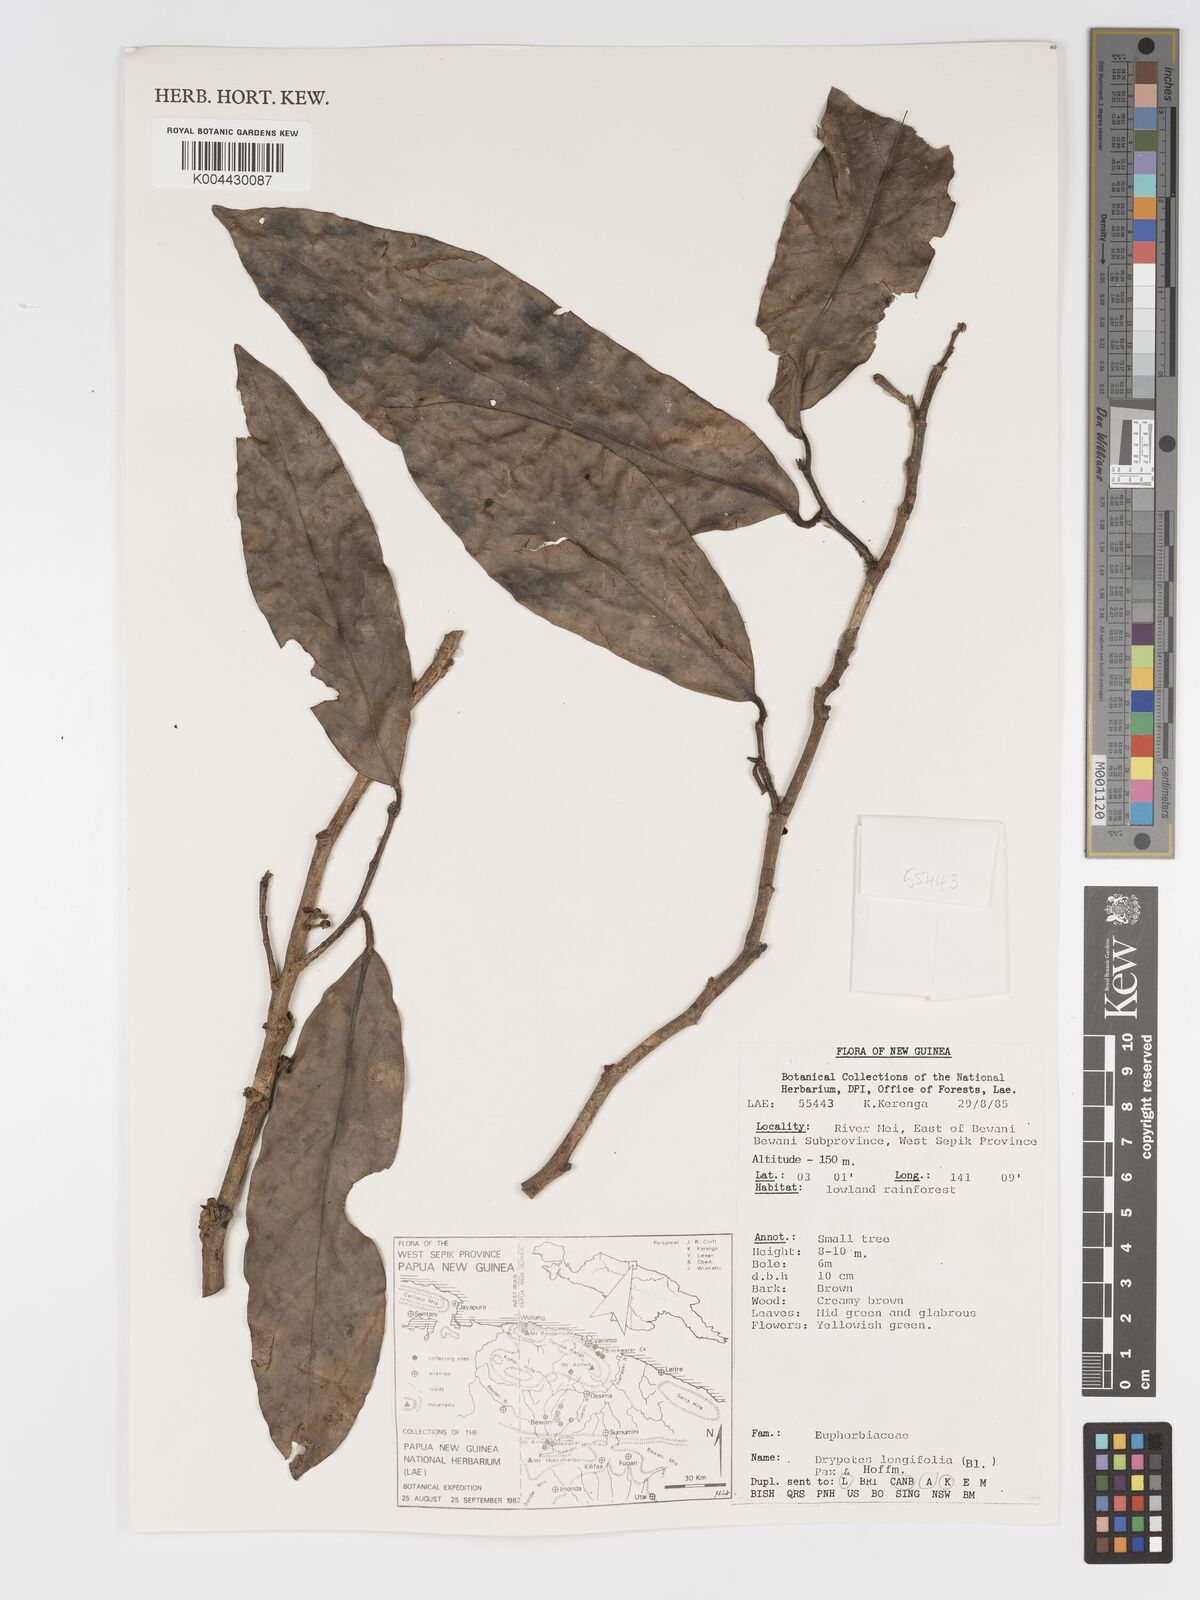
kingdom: Plantae
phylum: Tracheophyta
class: Magnoliopsida
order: Malpighiales
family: Putranjivaceae
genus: Drypetes
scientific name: Drypetes longifolia
